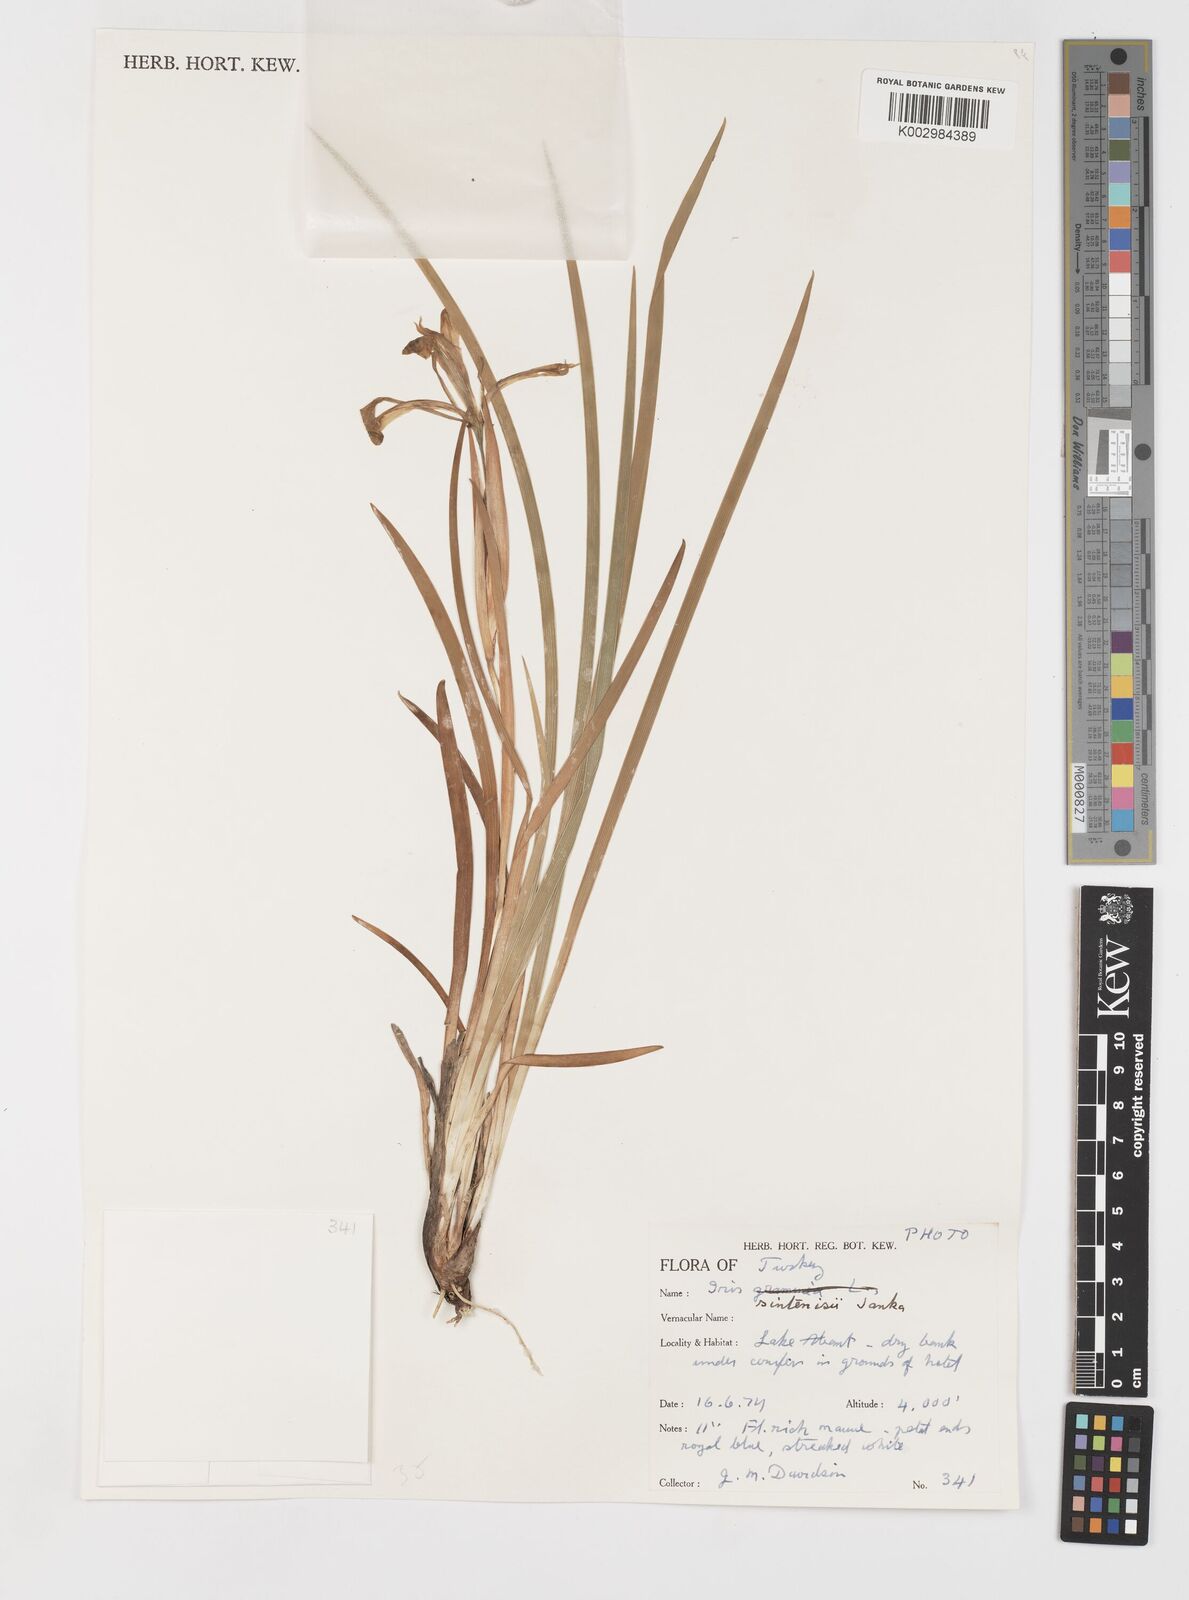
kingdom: Plantae
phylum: Tracheophyta
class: Liliopsida
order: Asparagales
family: Iridaceae
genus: Iris
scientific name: Iris sintenisii
